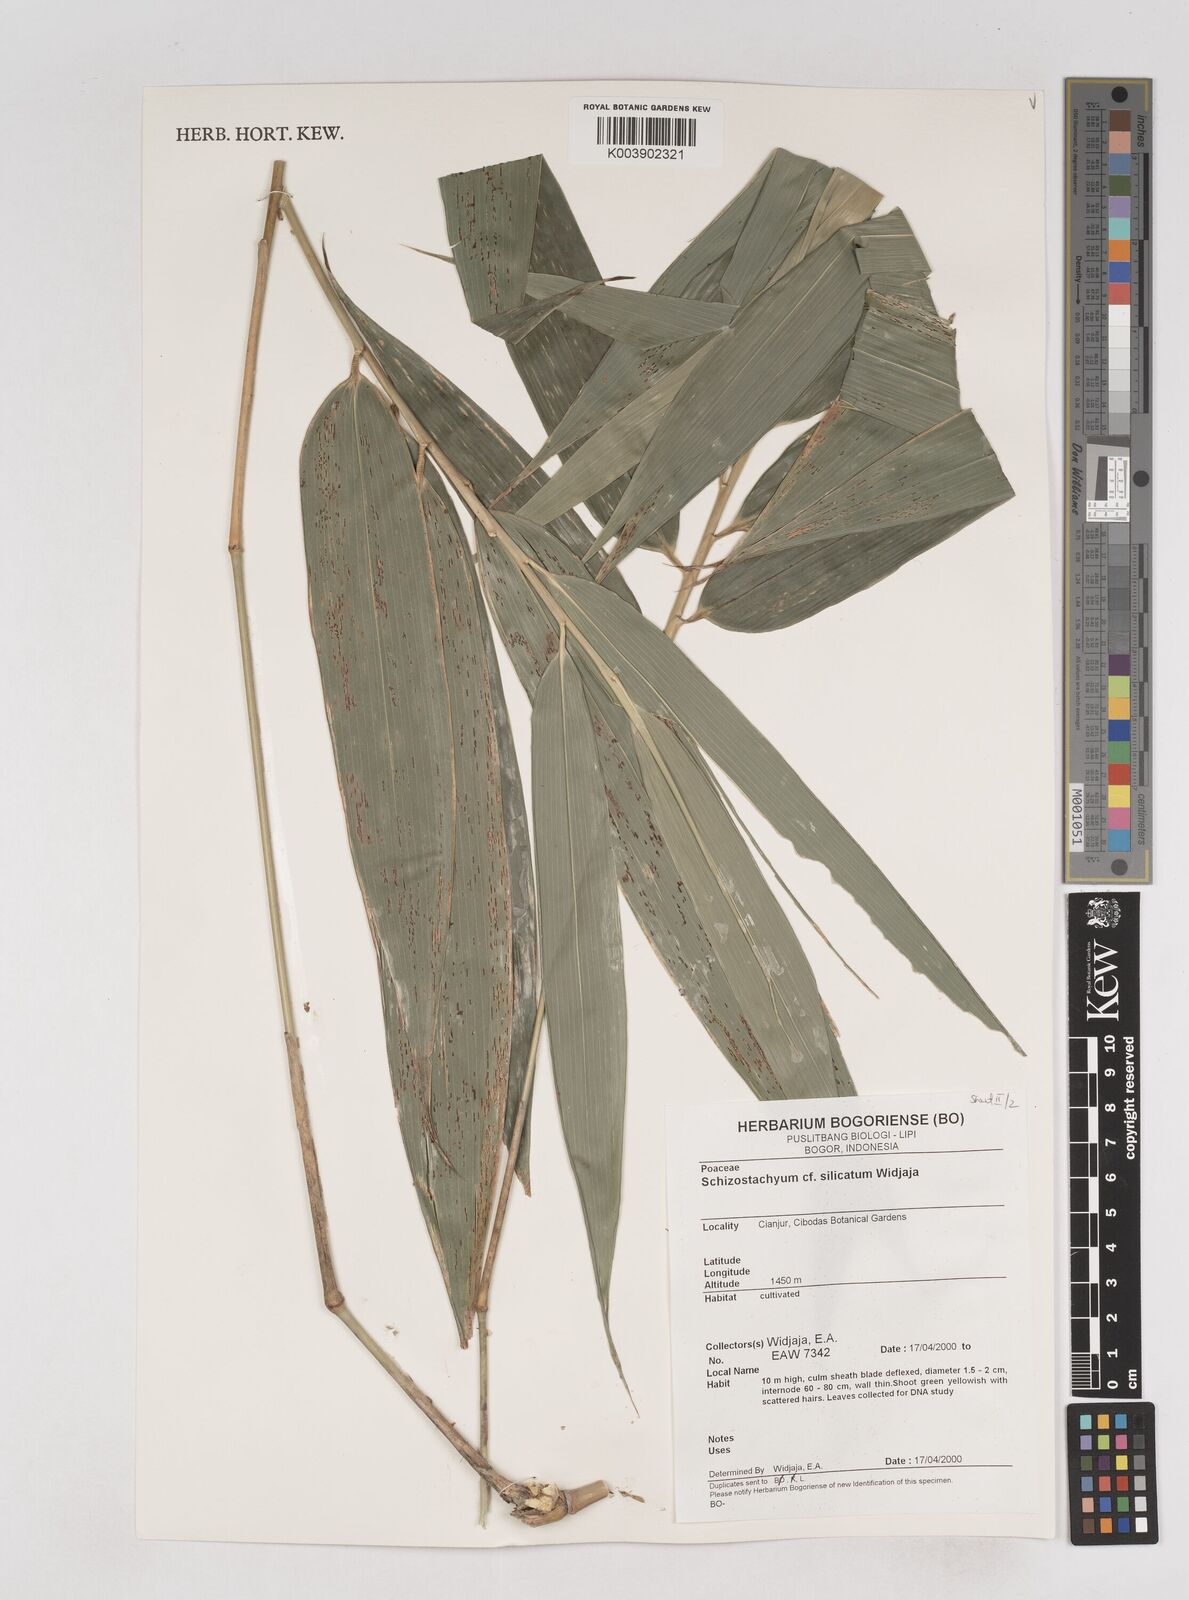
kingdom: Plantae
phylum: Tracheophyta
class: Liliopsida
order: Poales
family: Poaceae
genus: Schizostachyum
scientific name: Schizostachyum silicatum
